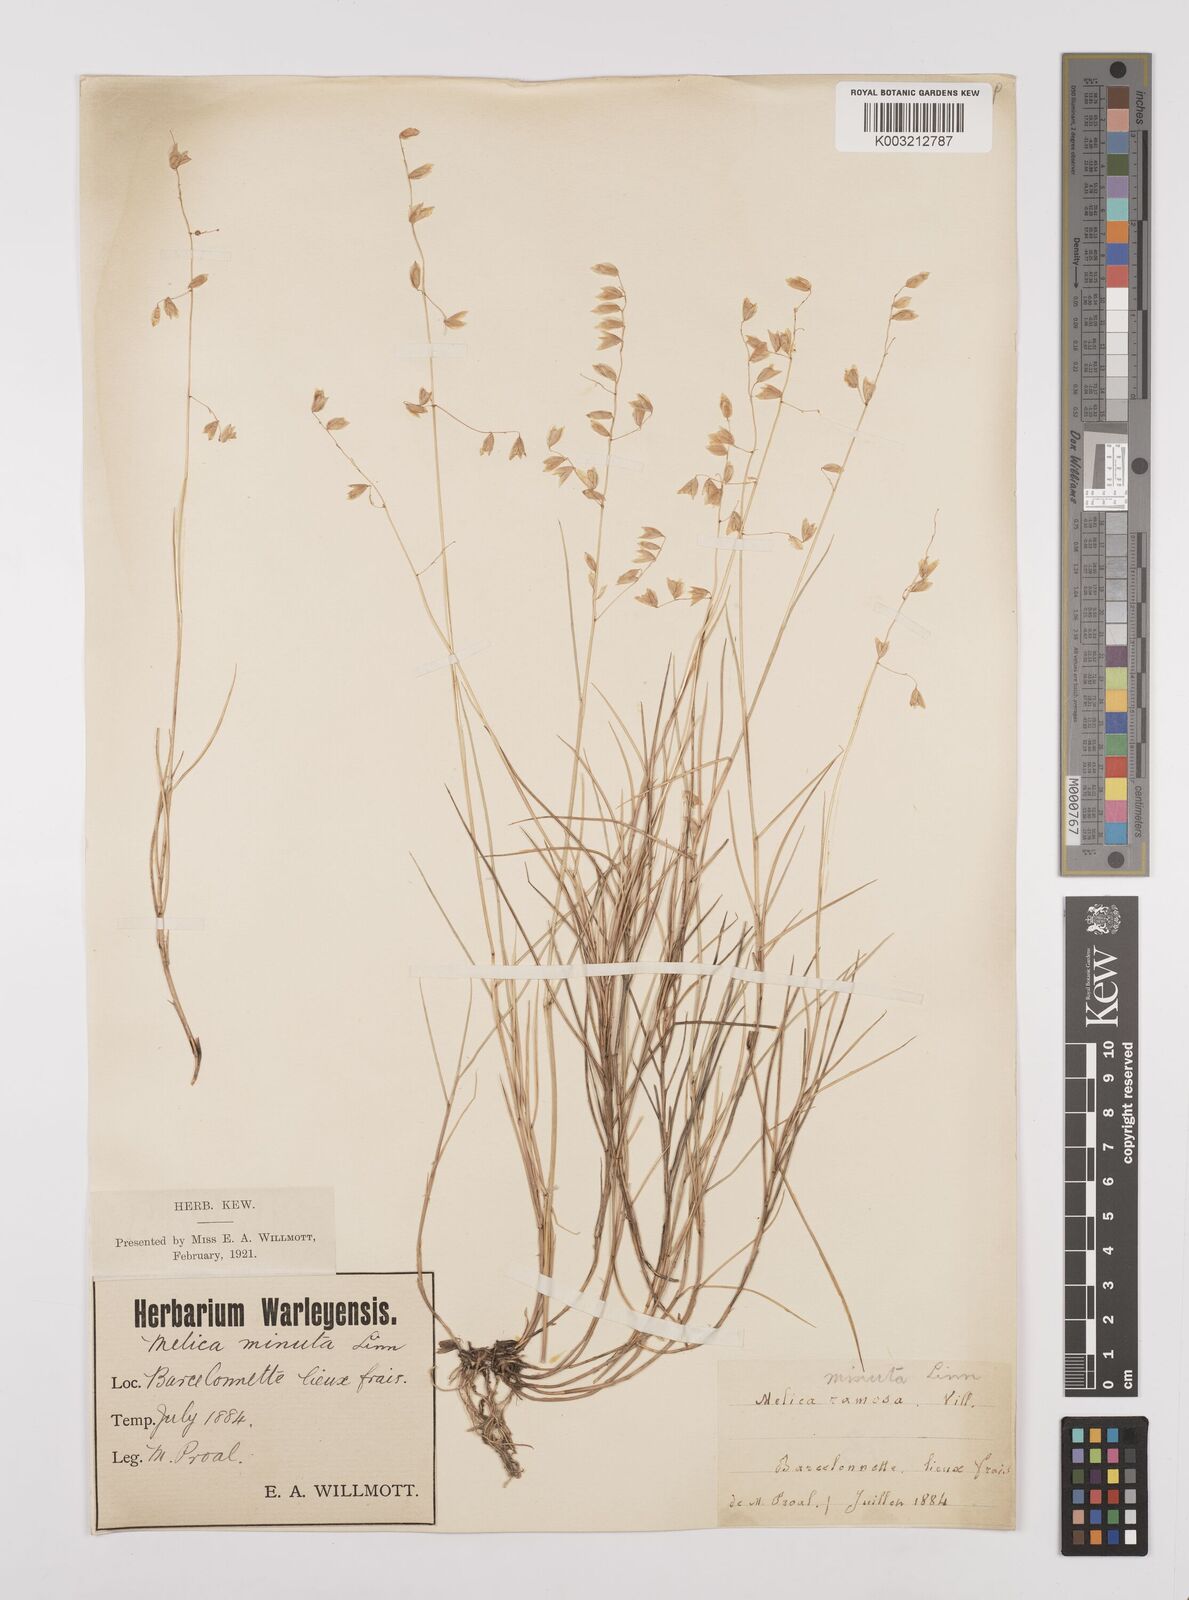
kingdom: Plantae
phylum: Tracheophyta
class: Liliopsida
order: Poales
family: Poaceae
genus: Melica
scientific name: Melica minuta
